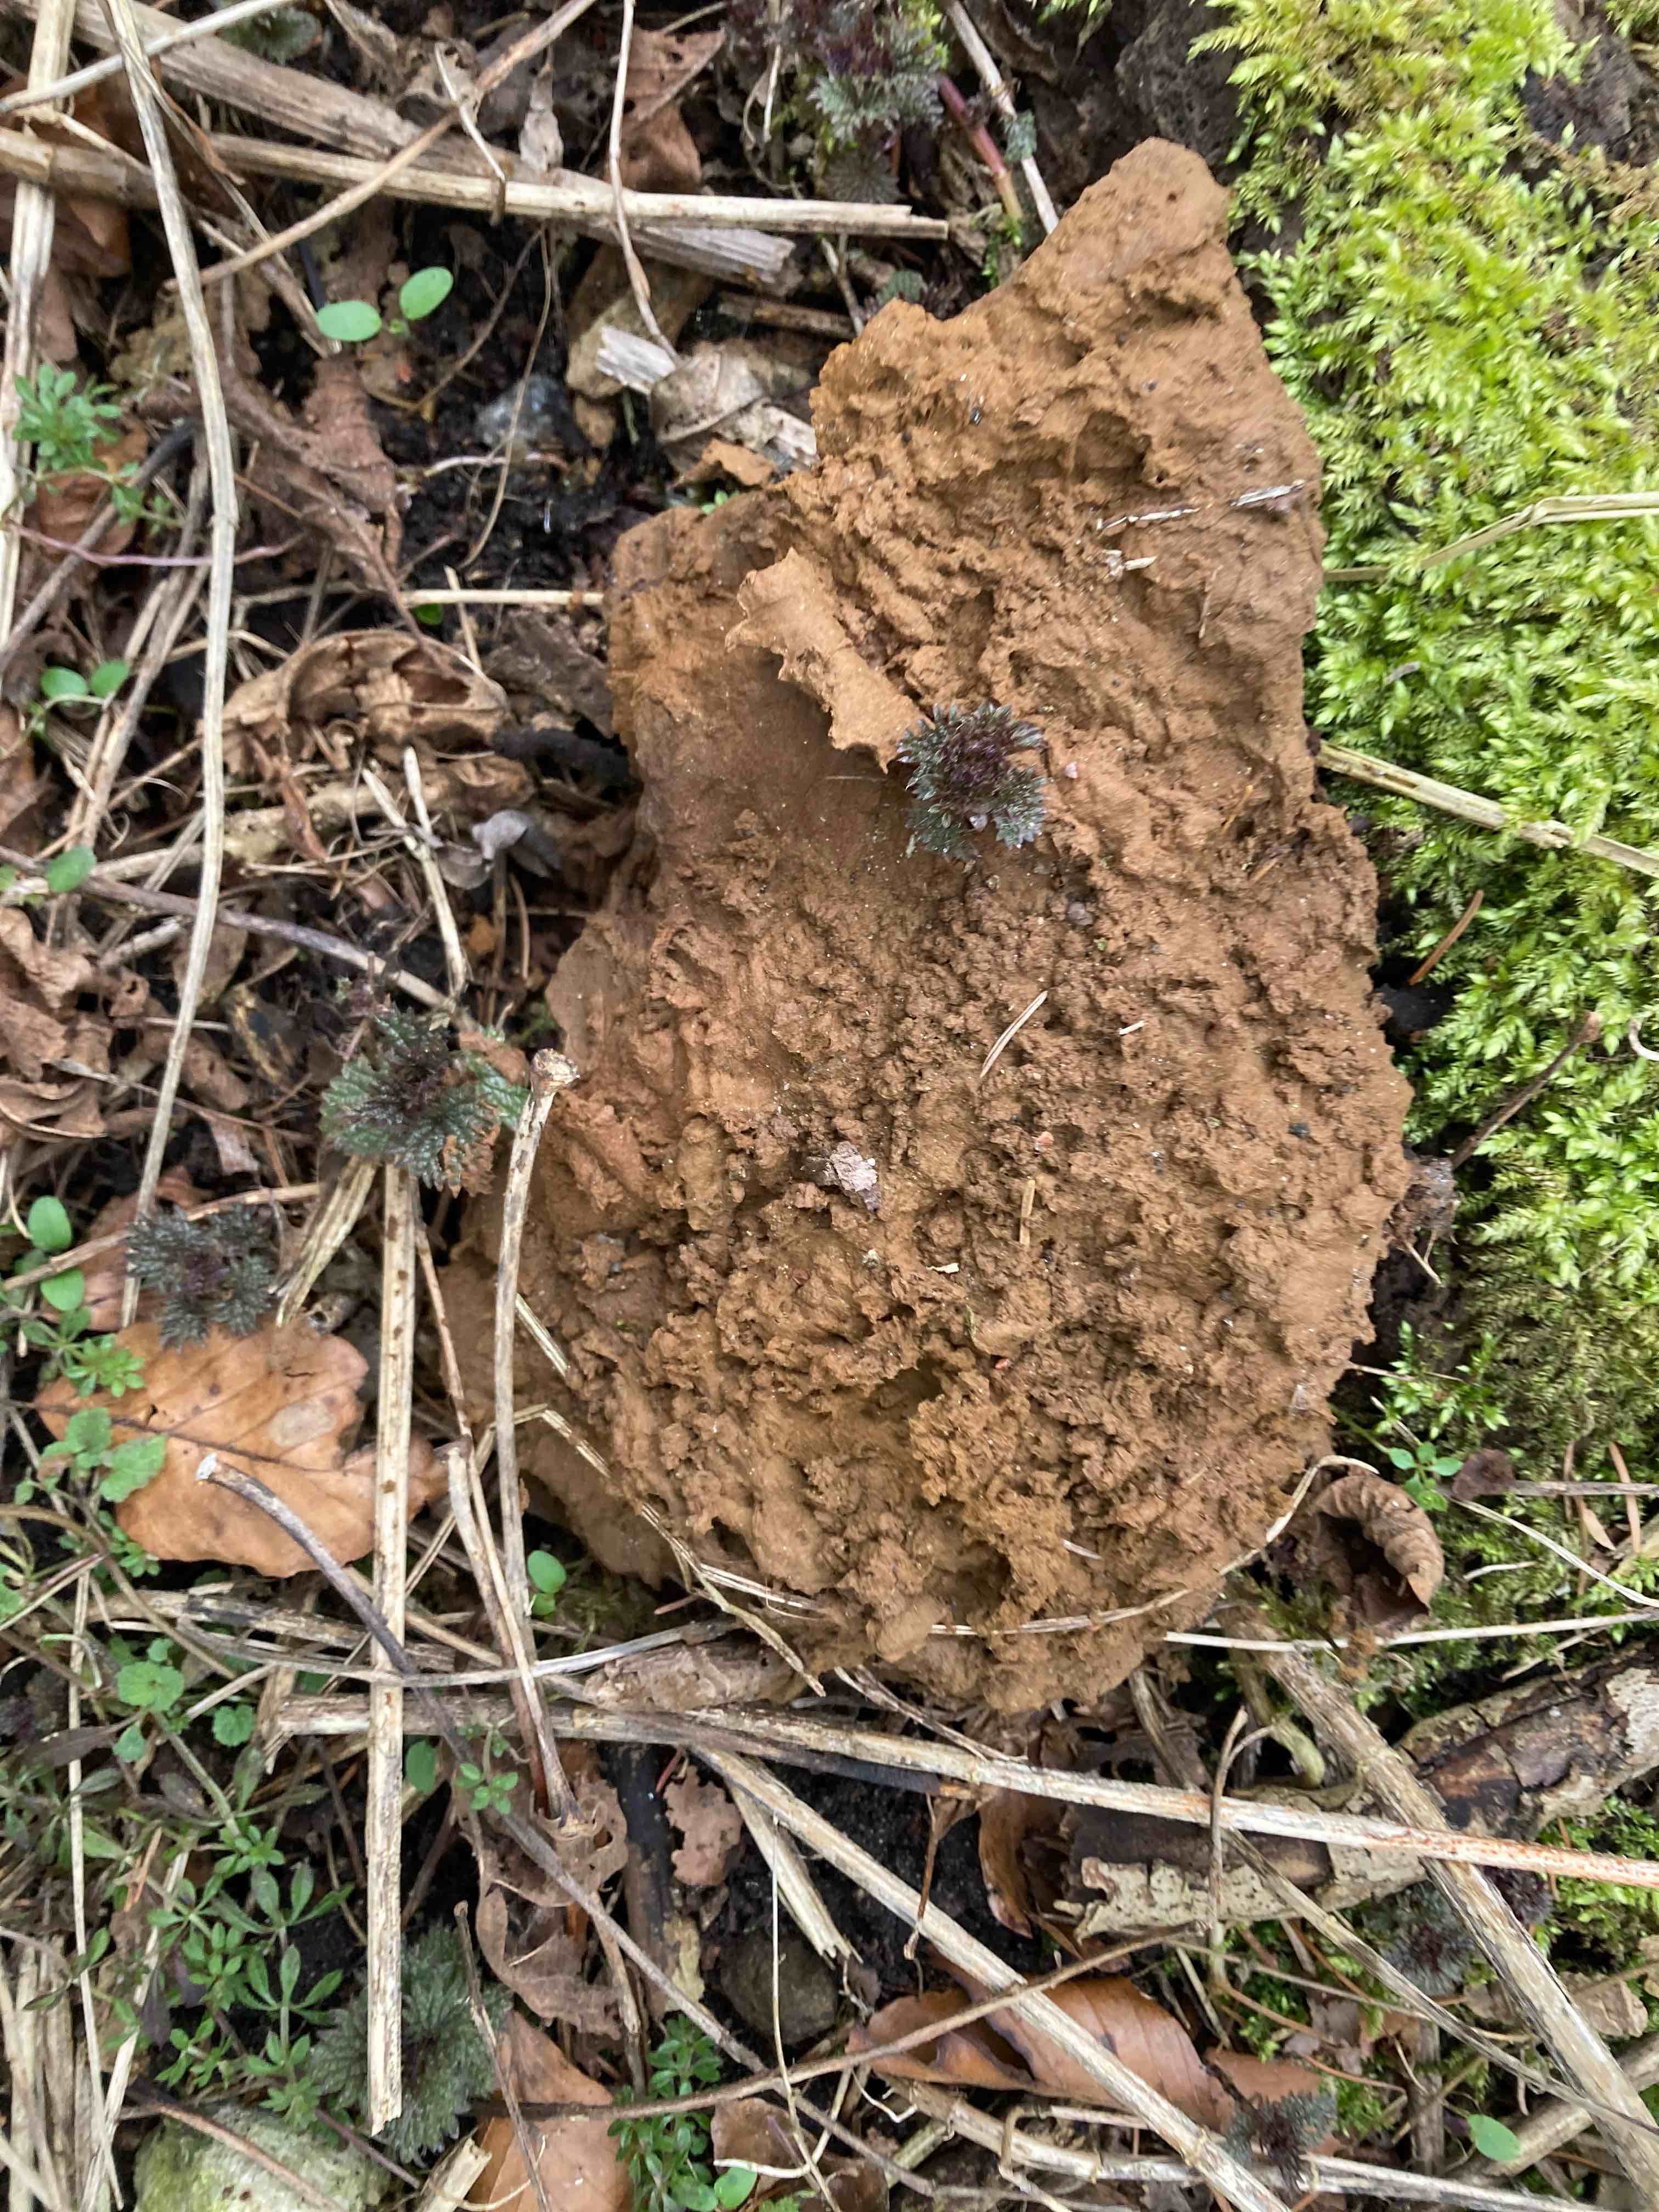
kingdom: Fungi
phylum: Basidiomycota
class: Agaricomycetes
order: Agaricales
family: Lycoperdaceae
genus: Calvatia
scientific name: Calvatia gigantea
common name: kæmpestøvbold
